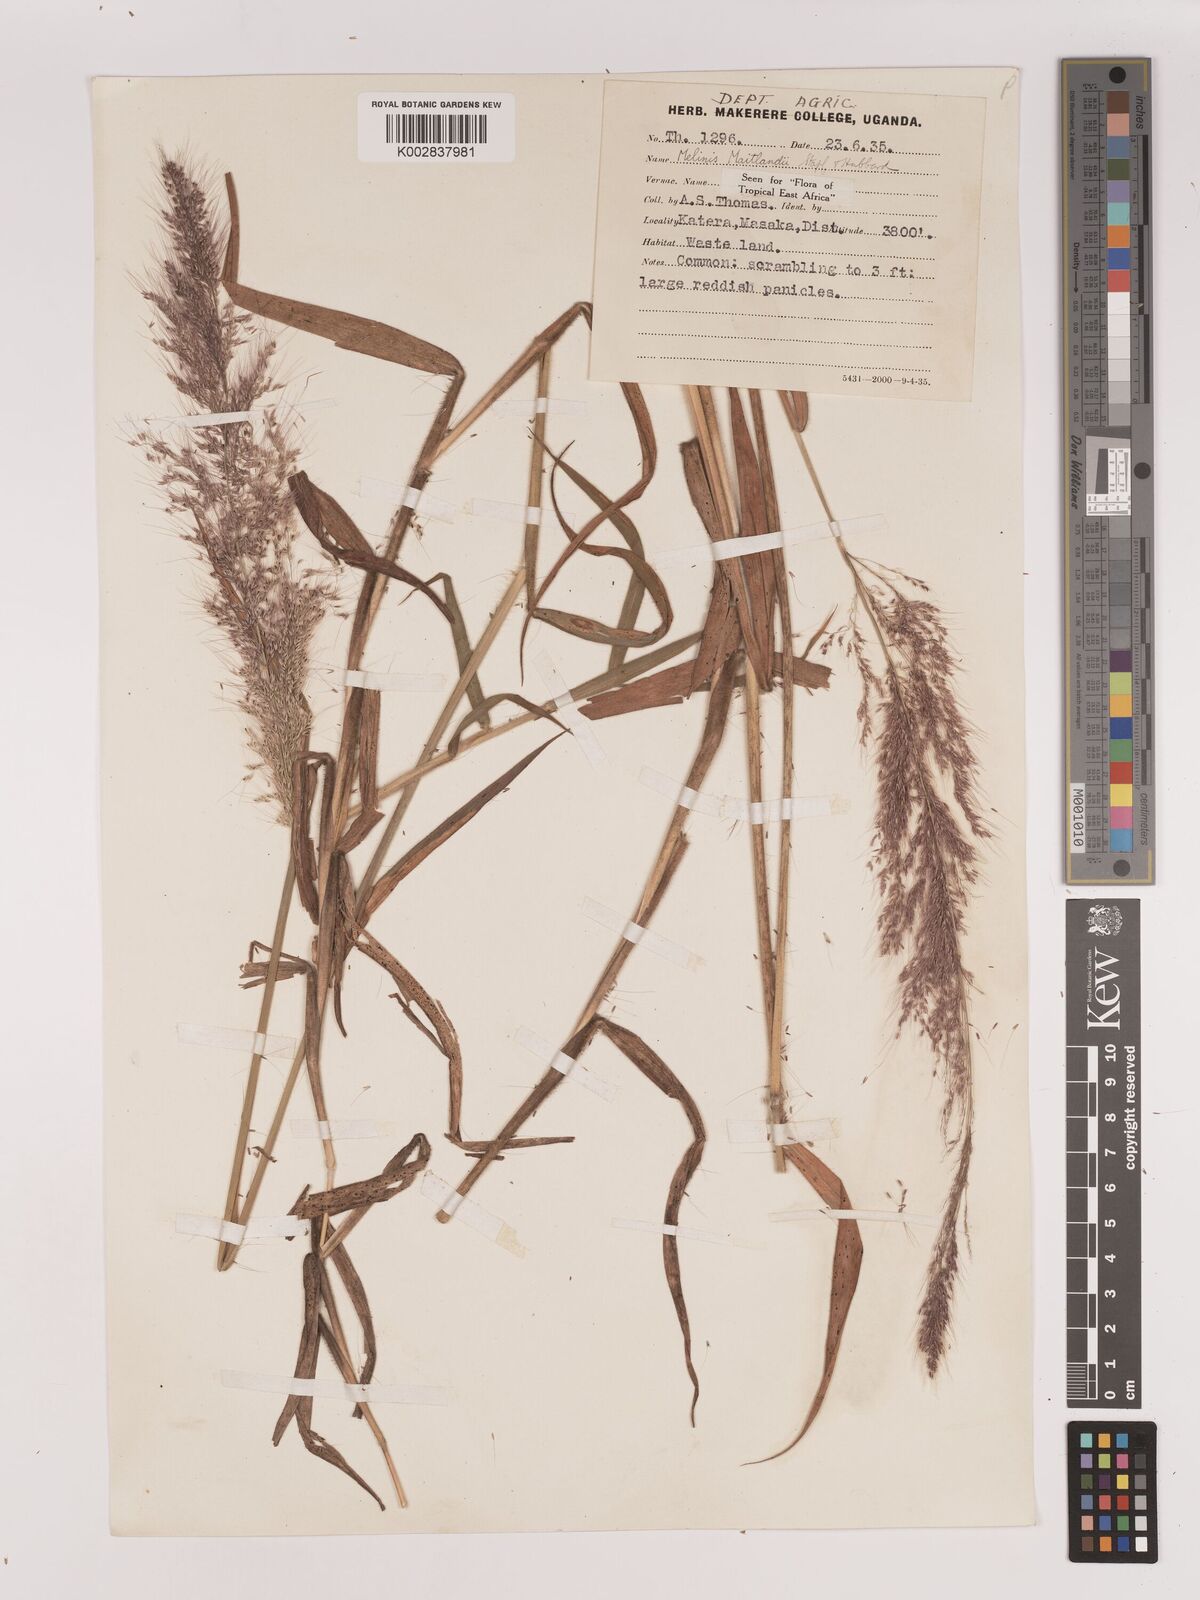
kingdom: Plantae
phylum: Tracheophyta
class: Liliopsida
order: Poales
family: Poaceae
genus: Melinis
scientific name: Melinis minutiflora
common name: Molassesgrass
